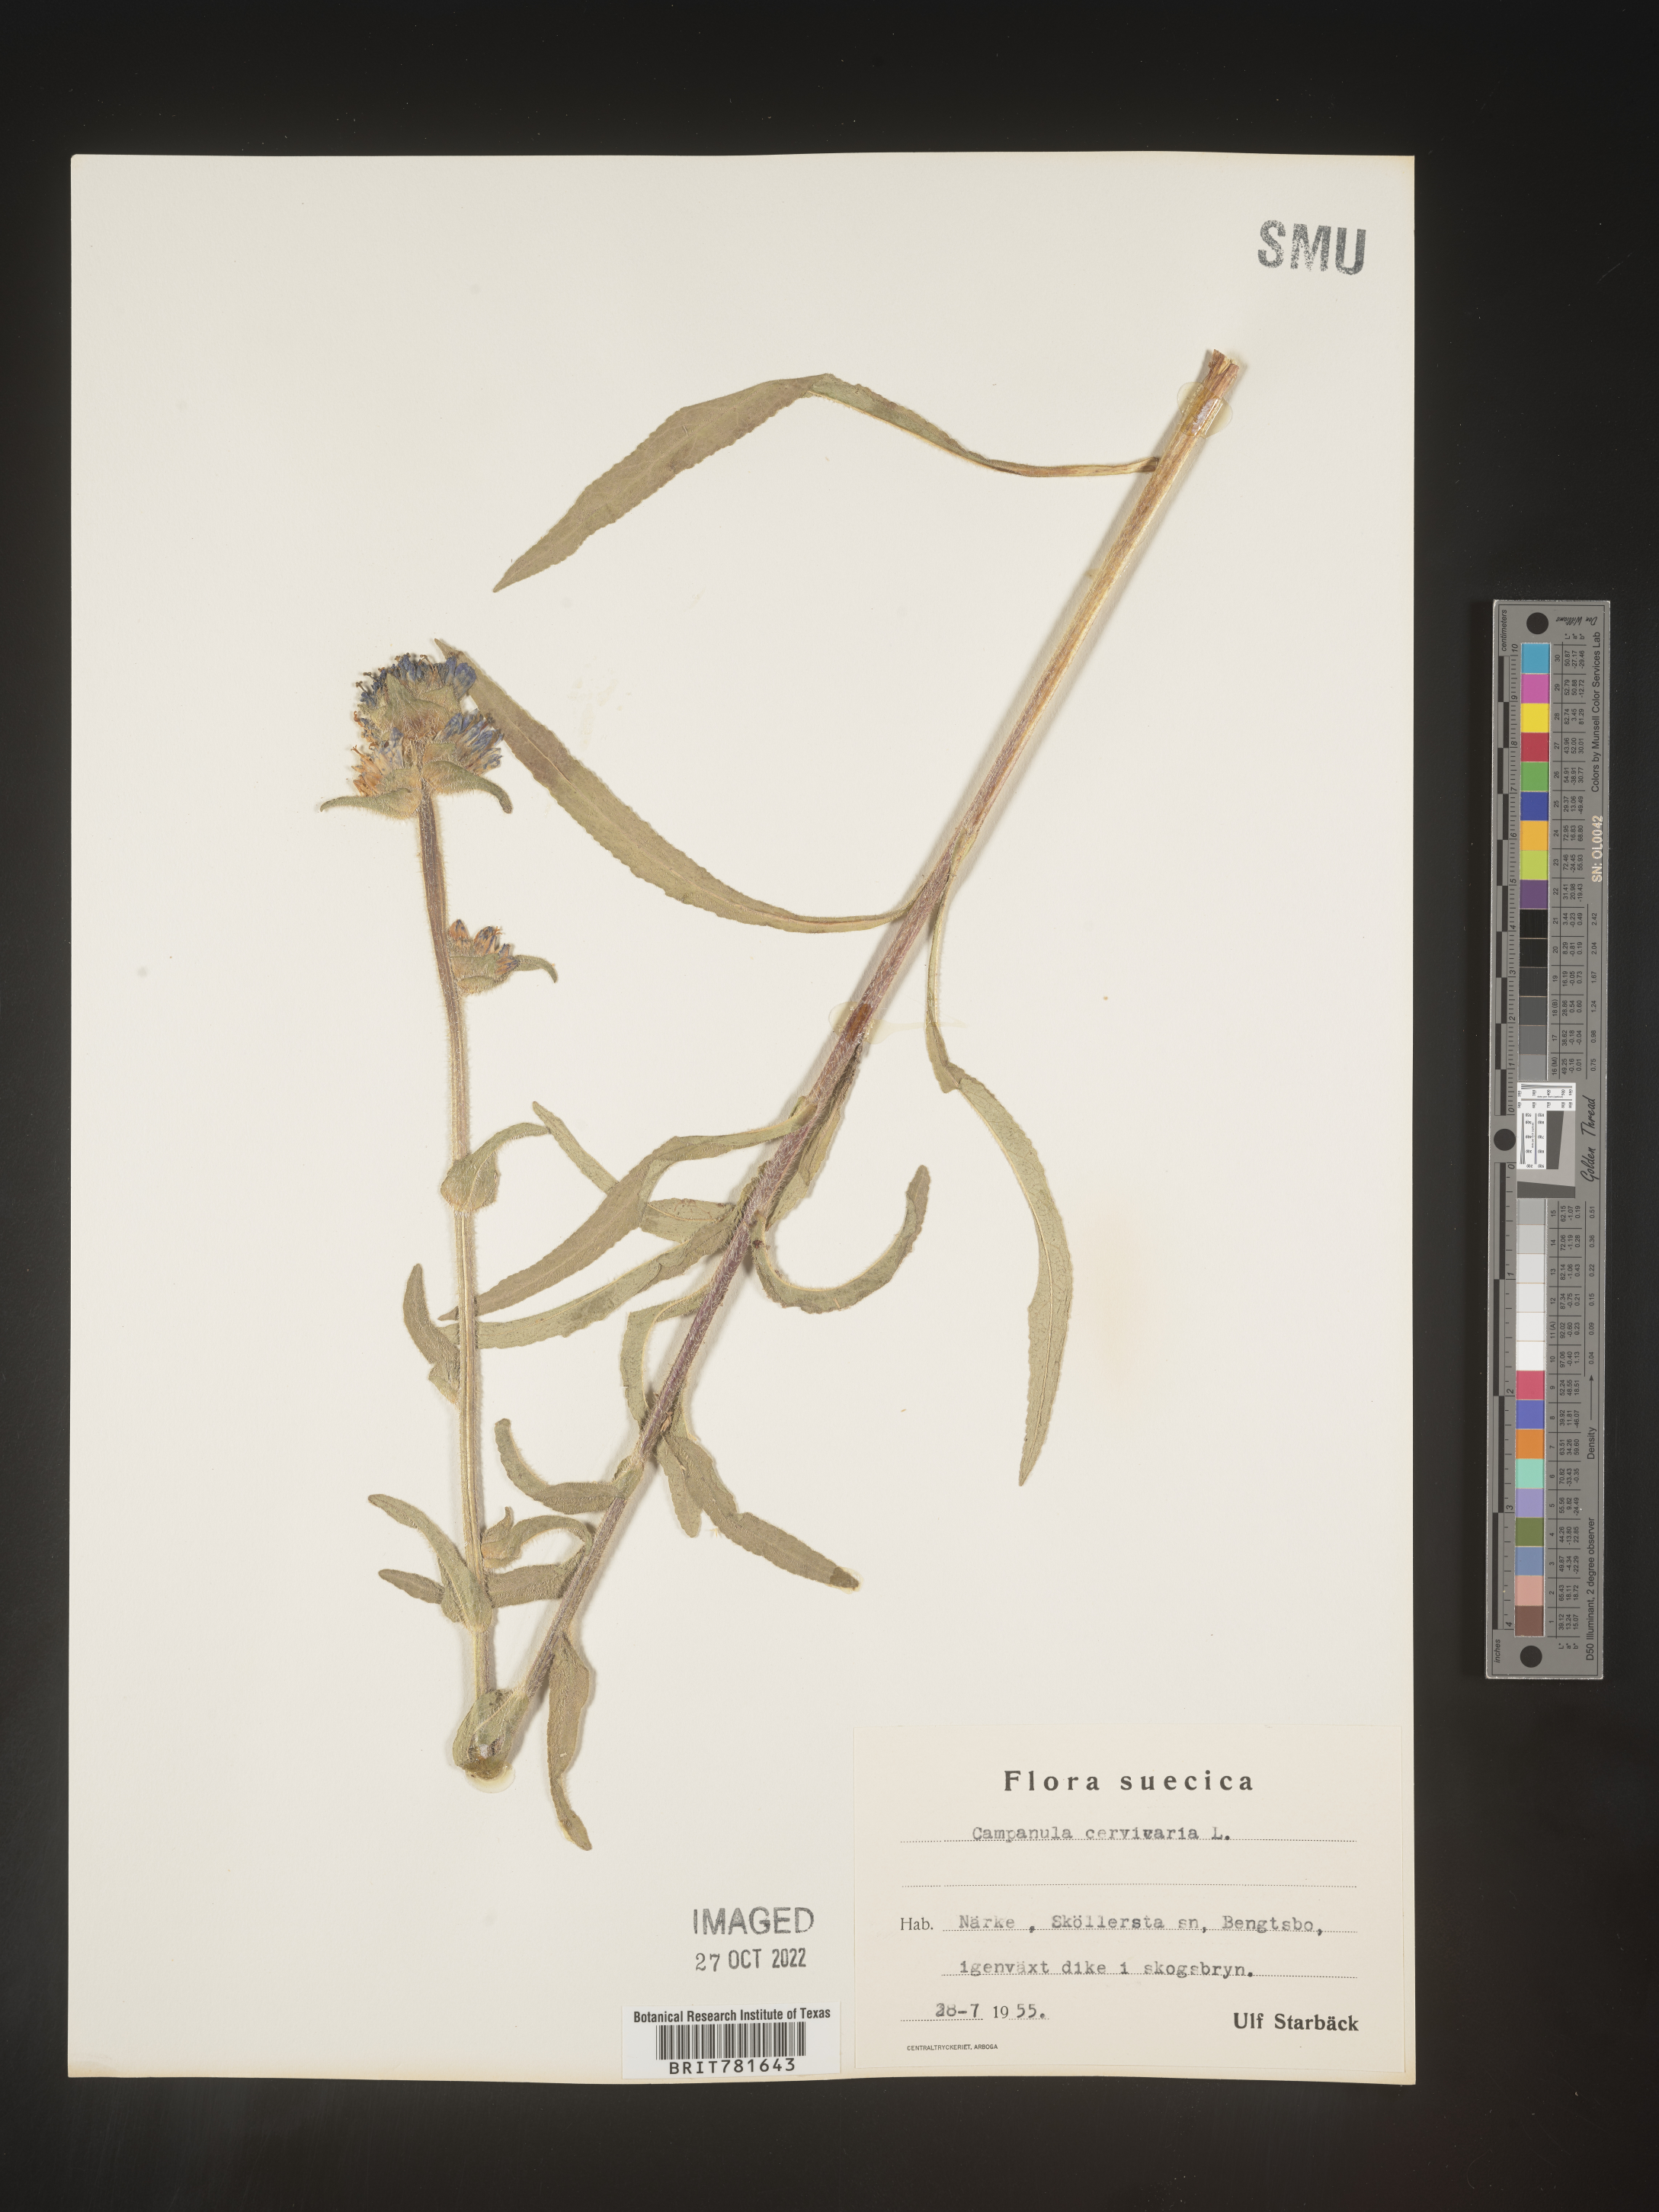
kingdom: Plantae
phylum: Tracheophyta
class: Magnoliopsida
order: Asterales
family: Campanulaceae
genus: Campanula
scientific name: Campanula
